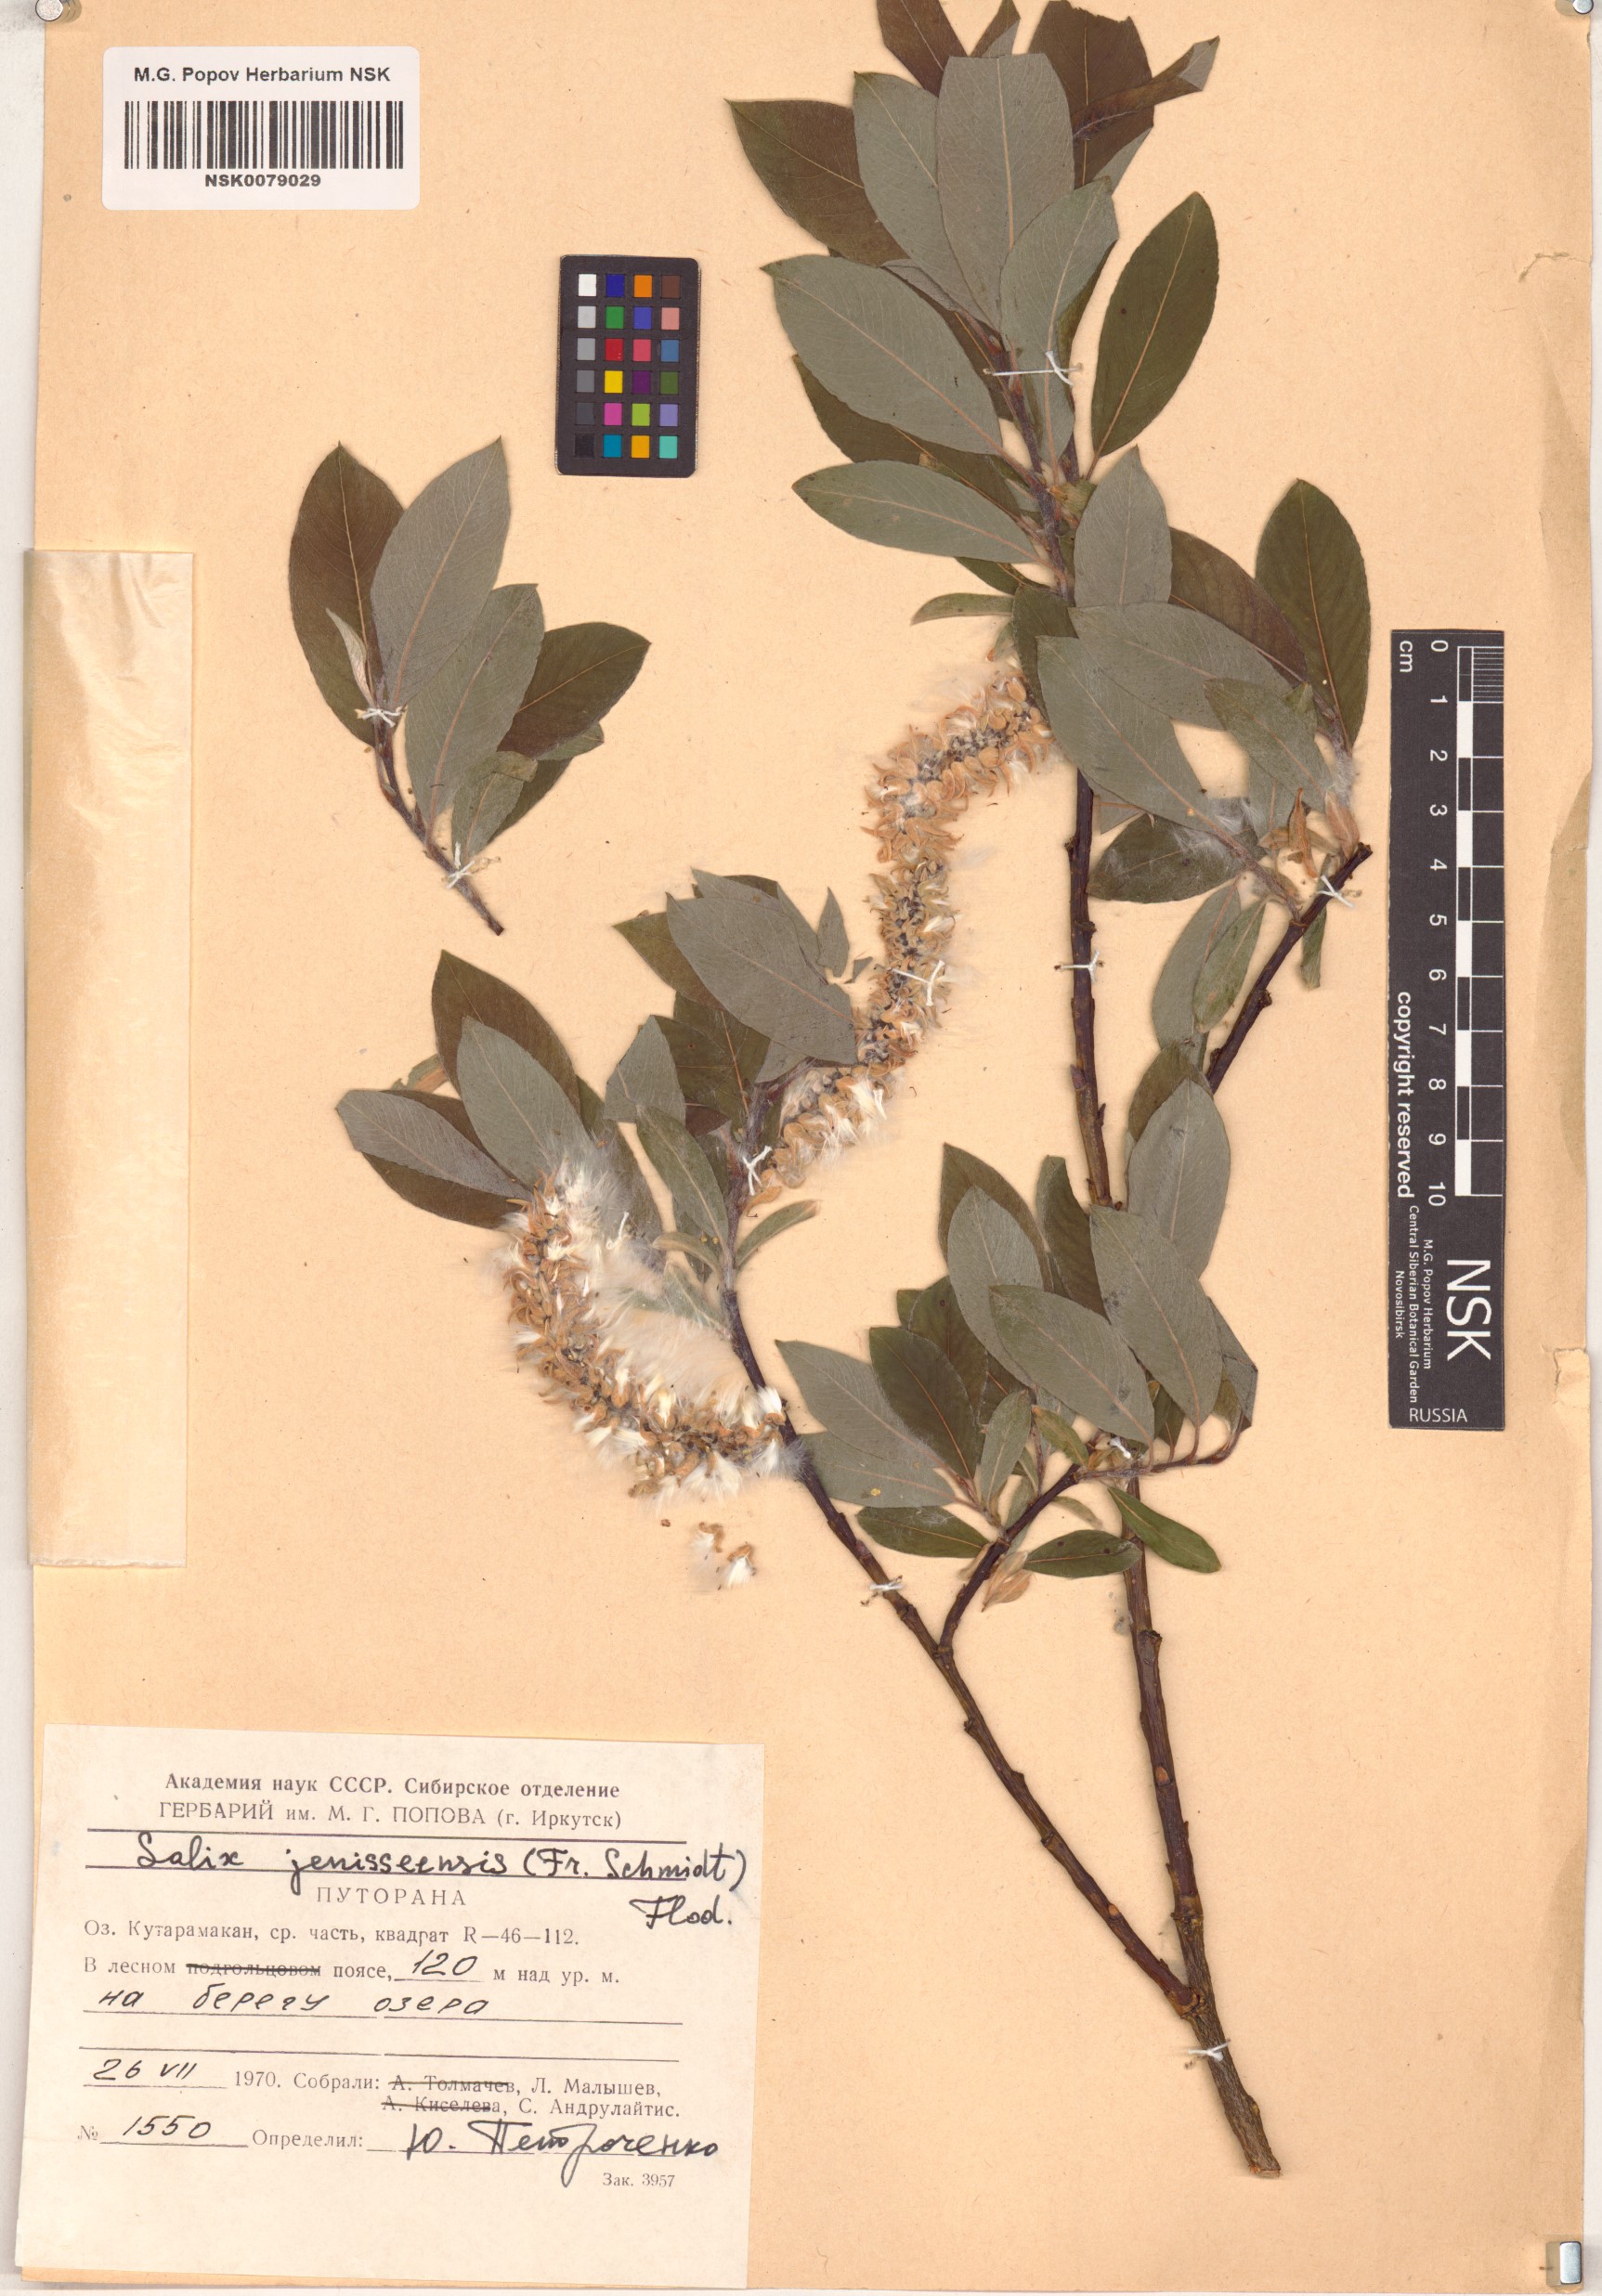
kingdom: Plantae
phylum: Tracheophyta
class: Magnoliopsida
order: Malpighiales
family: Salicaceae
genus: Salix
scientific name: Salix jenisseensis
